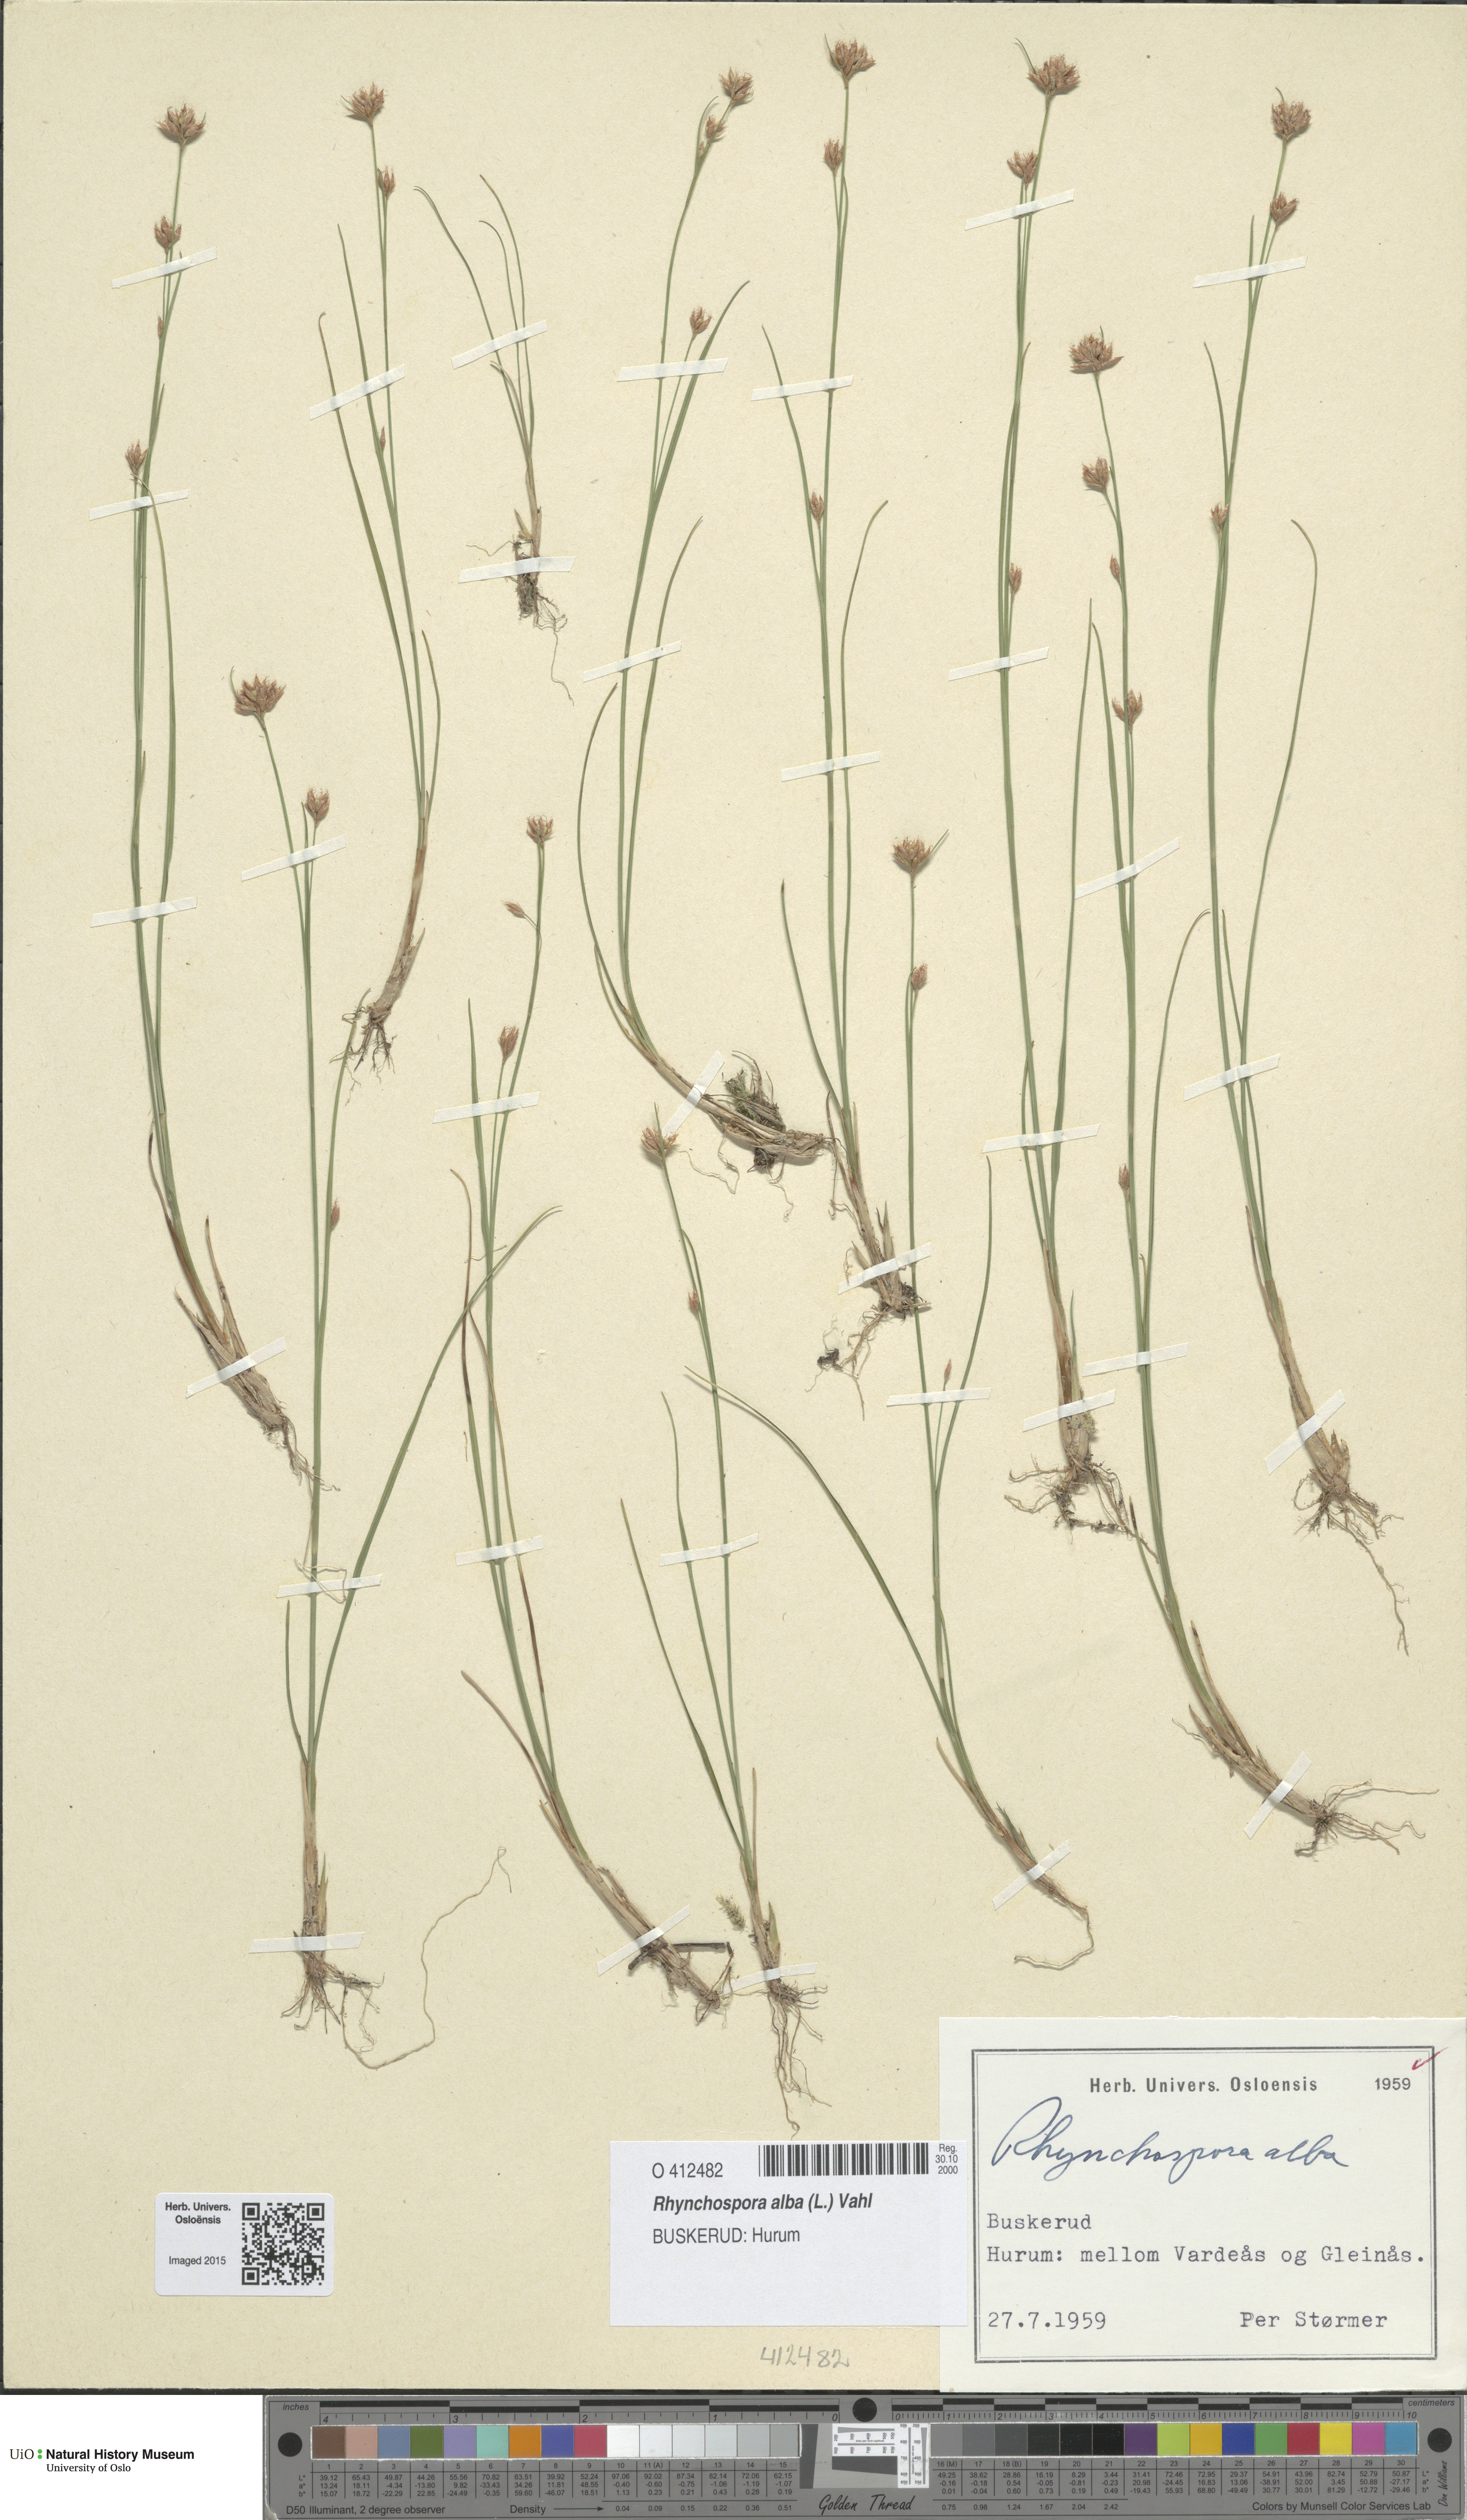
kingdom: Plantae
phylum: Tracheophyta
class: Liliopsida
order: Poales
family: Cyperaceae
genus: Rhynchospora
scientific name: Rhynchospora alba
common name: White beak-sedge
